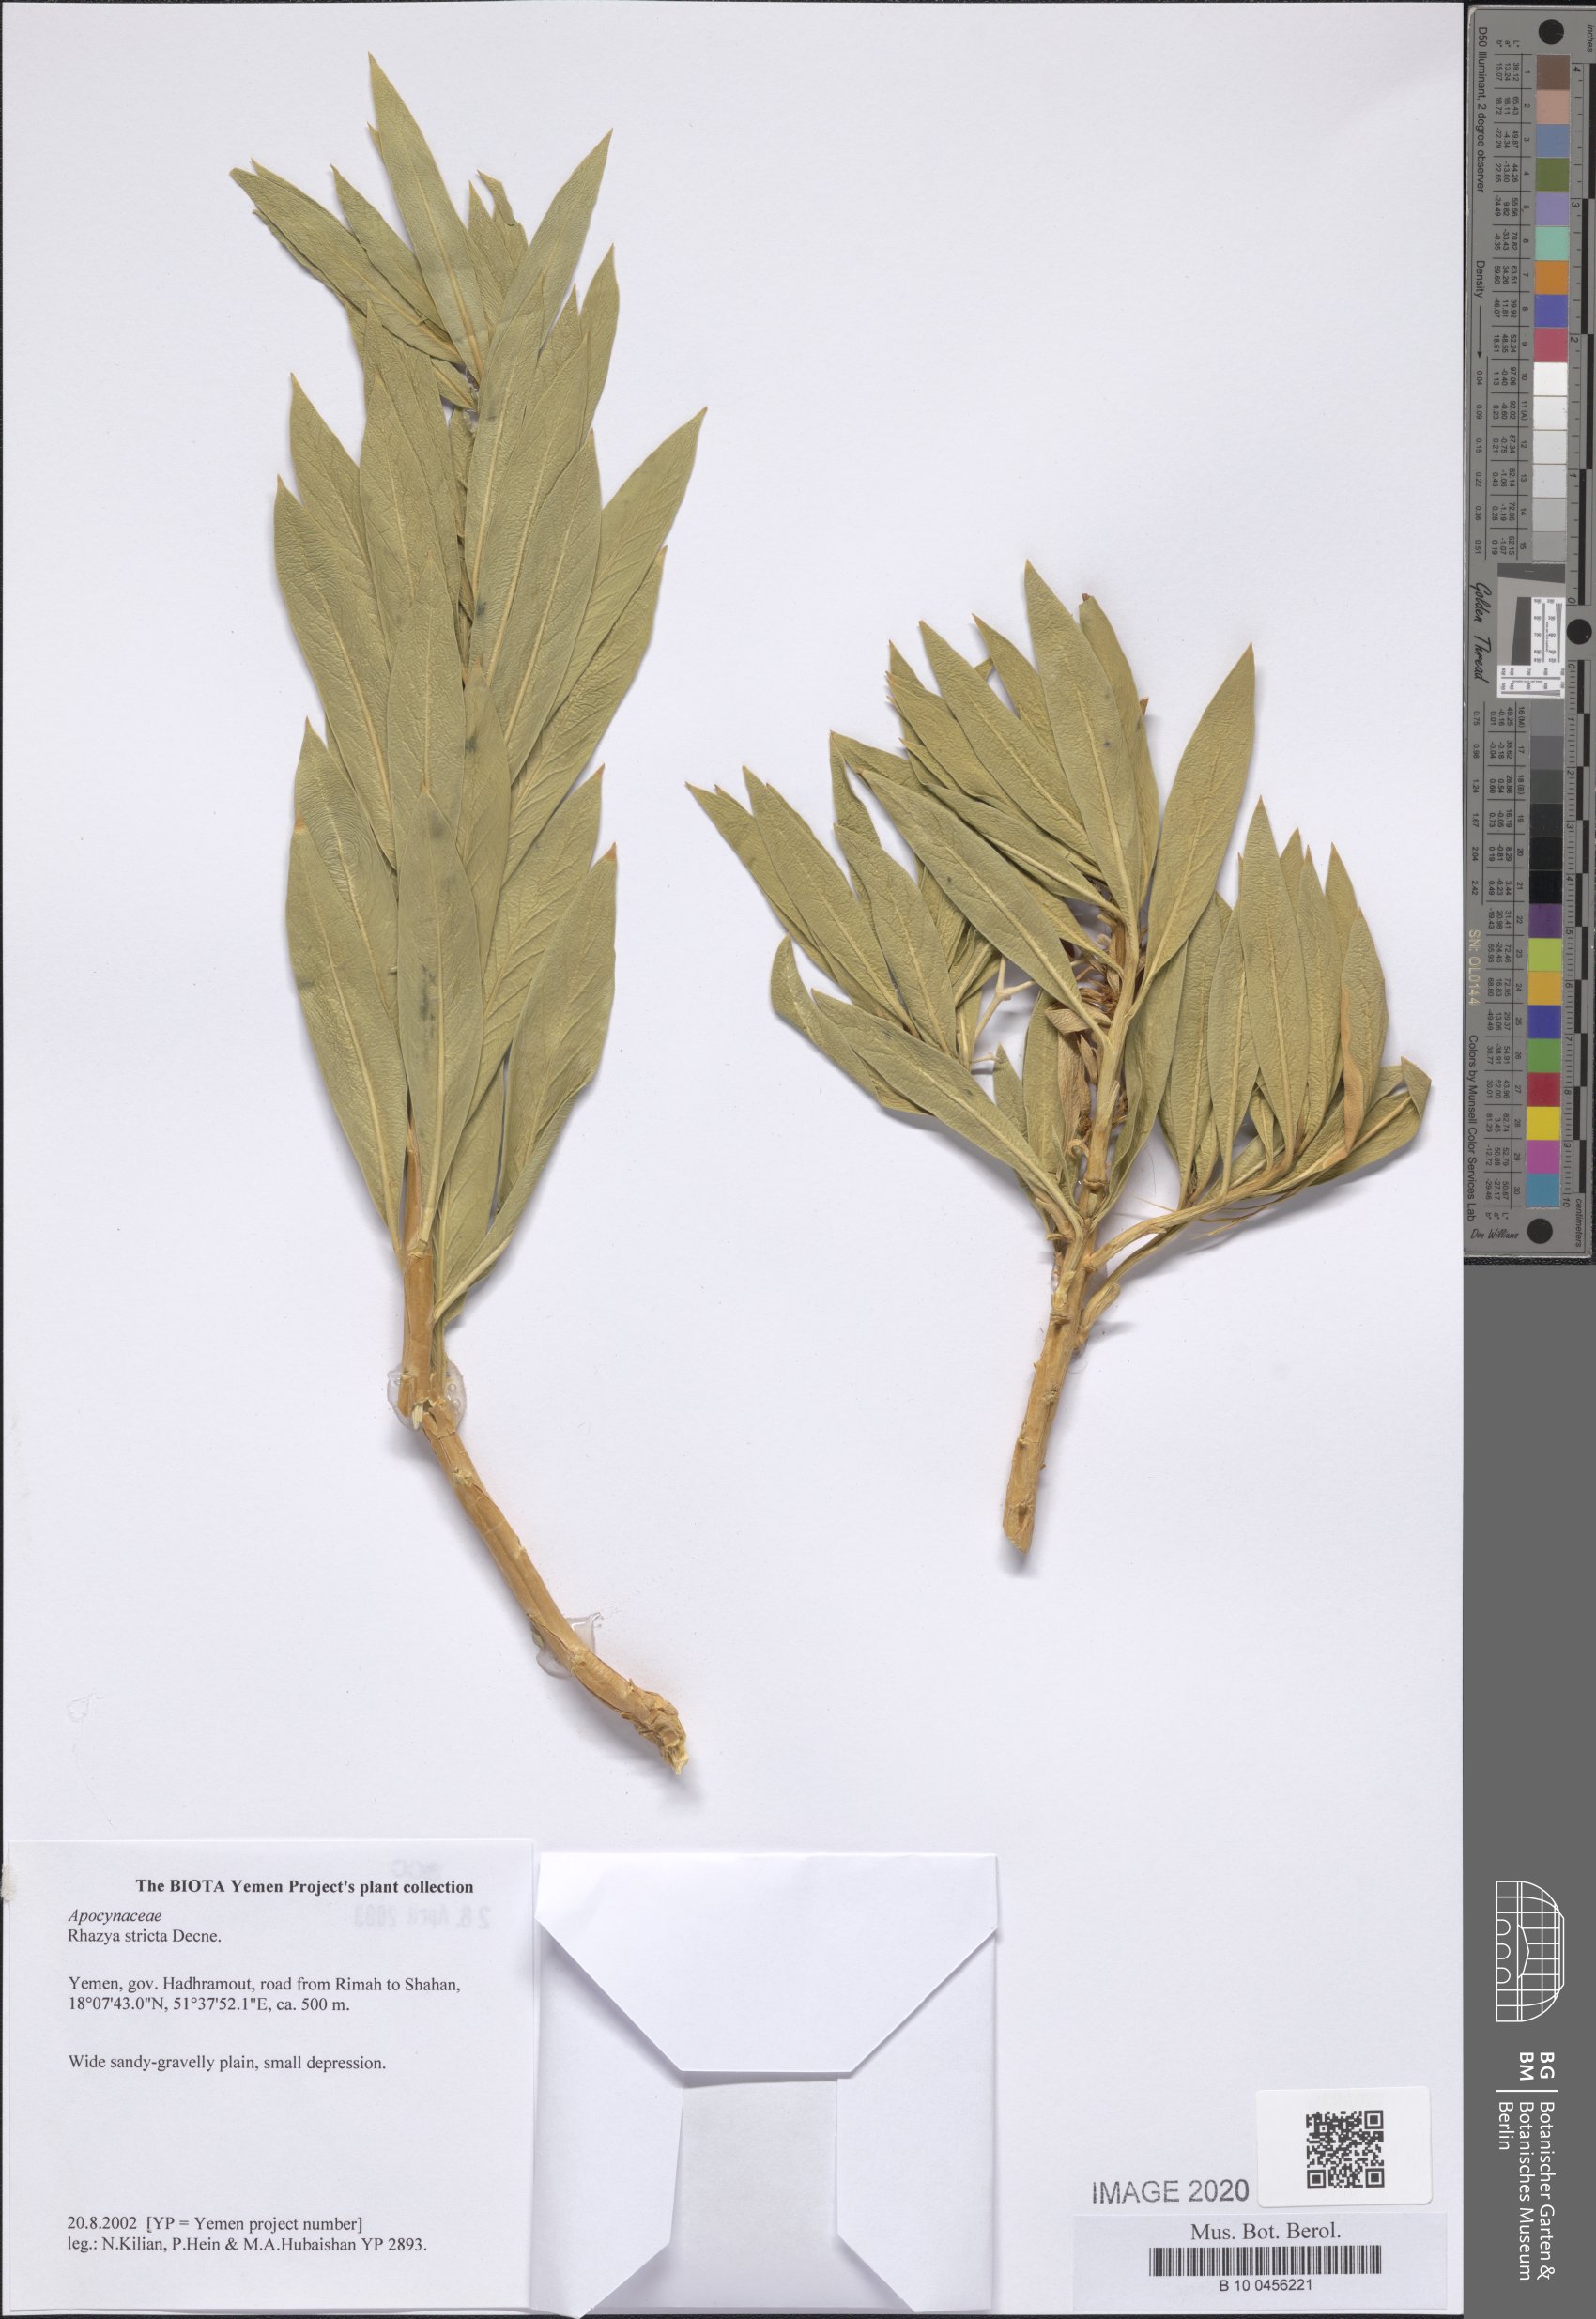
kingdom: Plantae
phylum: Tracheophyta
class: Magnoliopsida
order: Gentianales
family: Apocynaceae
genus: Rhazya
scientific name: Rhazya stricta
